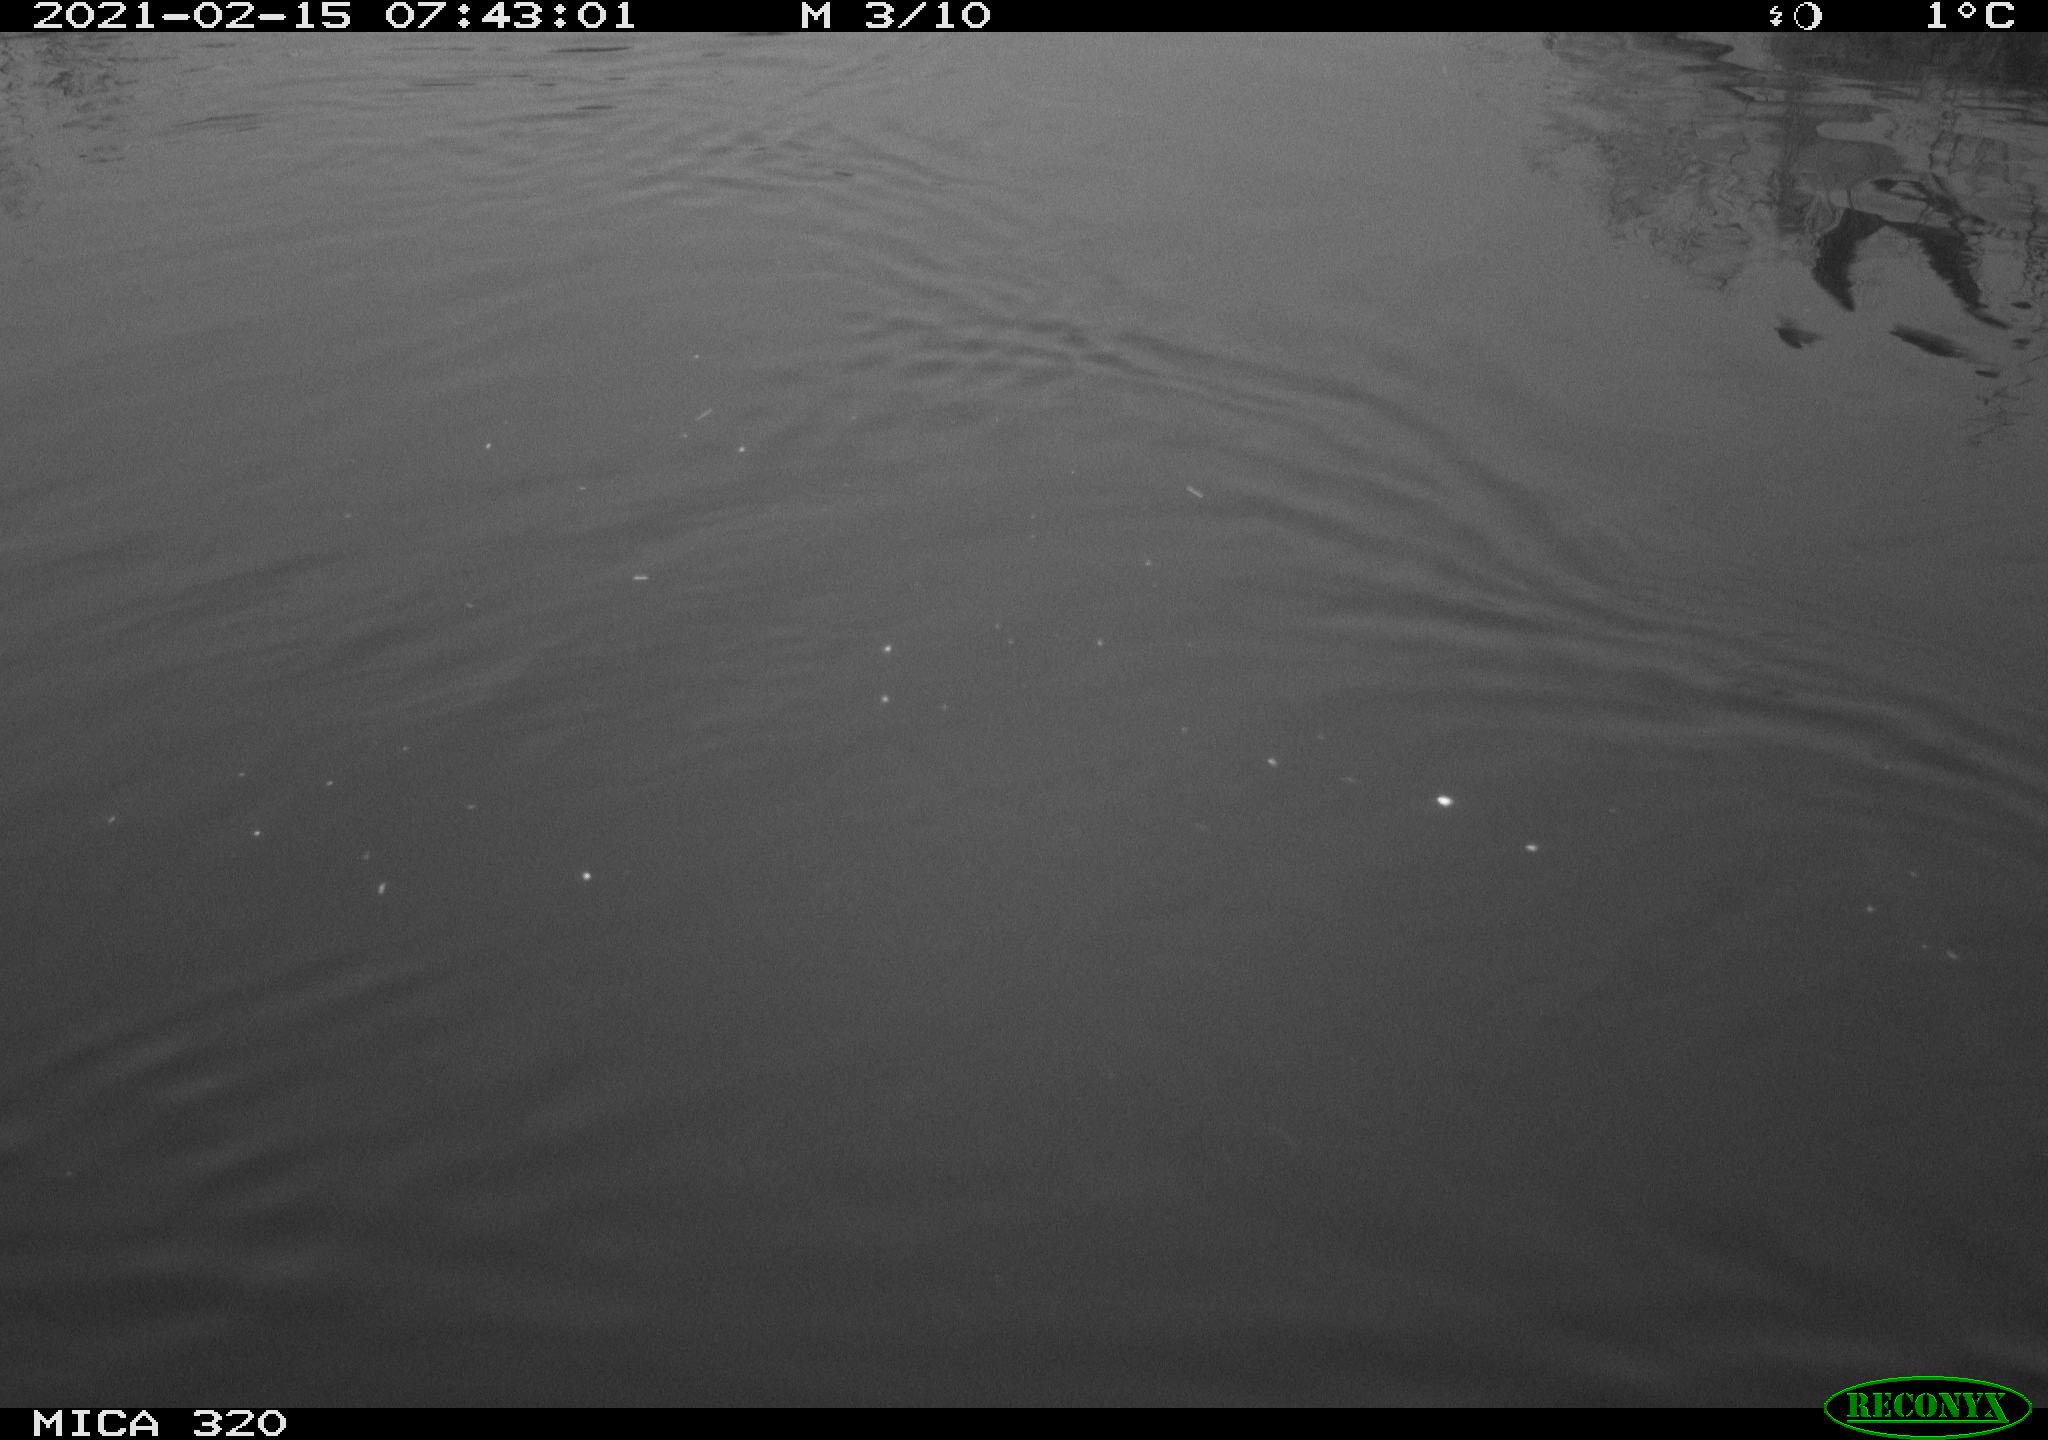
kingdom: Animalia
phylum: Chordata
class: Aves
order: Gruiformes
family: Rallidae
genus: Gallinula
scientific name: Gallinula chloropus
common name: Common moorhen
